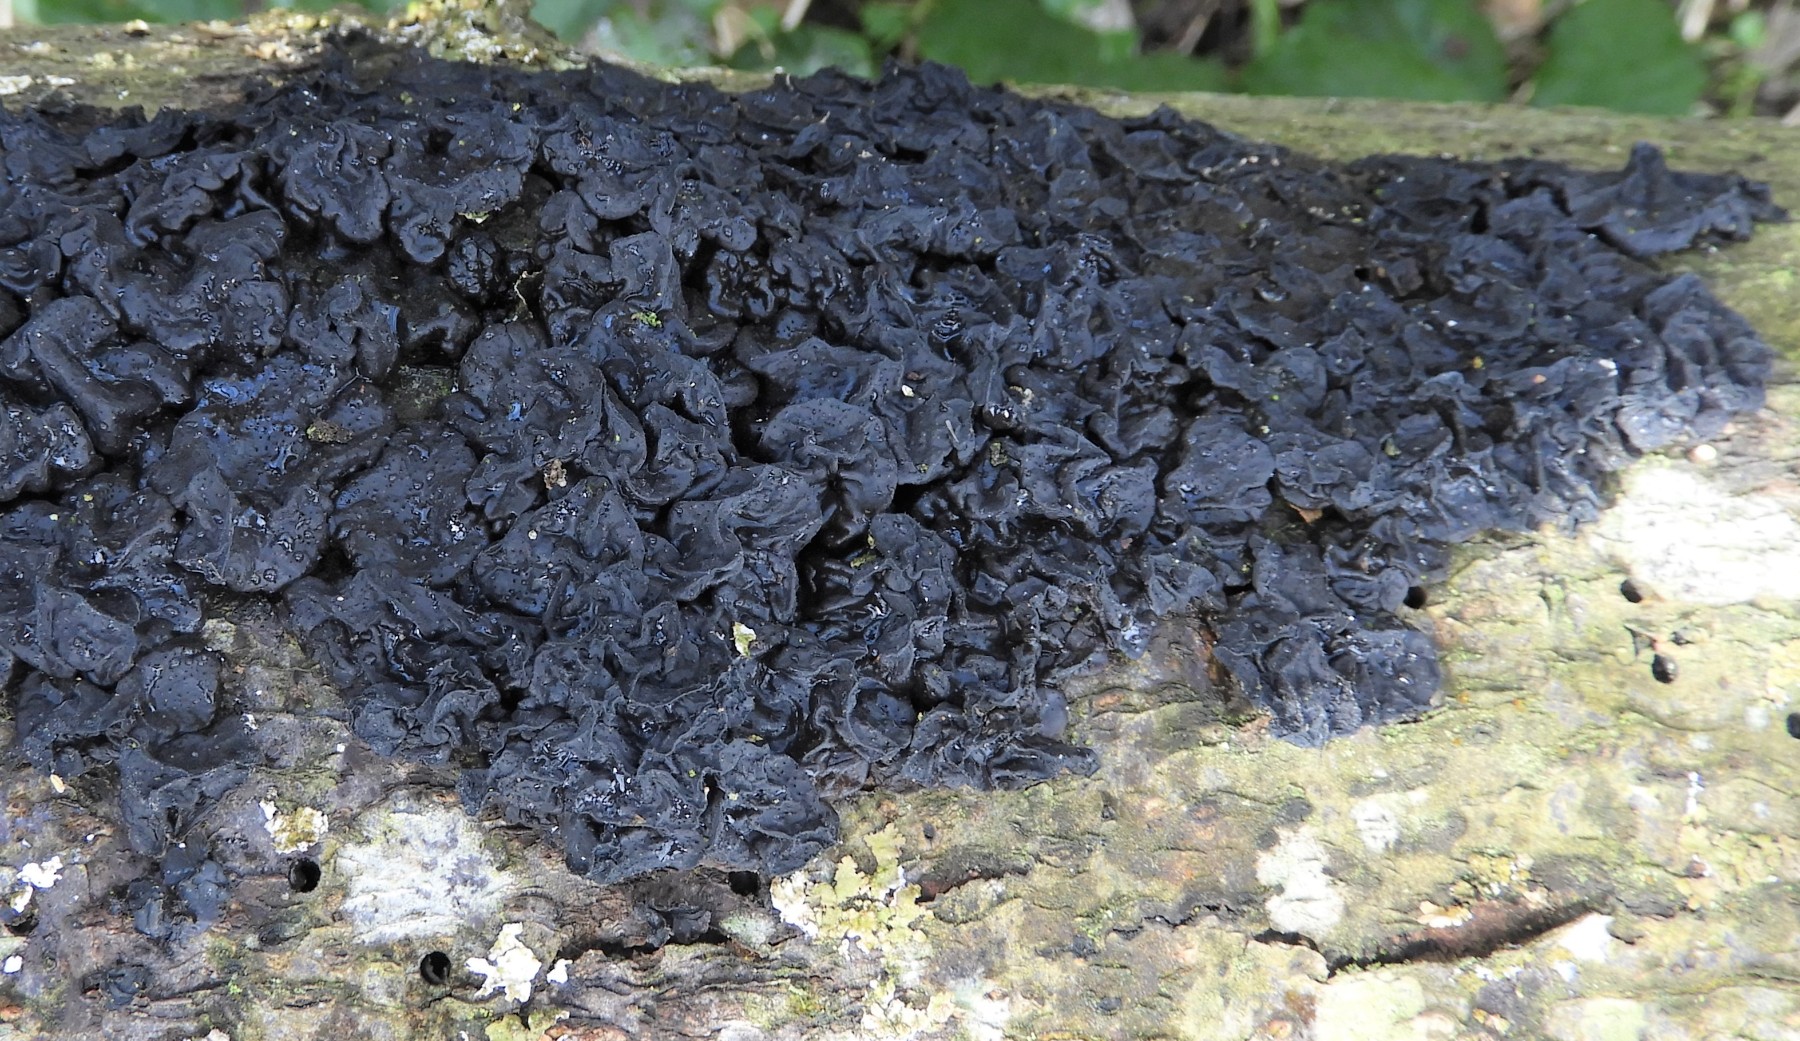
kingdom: Fungi
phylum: Basidiomycota
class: Agaricomycetes
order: Auriculariales
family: Auriculariaceae
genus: Exidia
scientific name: Exidia nigricans
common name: almindelig bævretop
